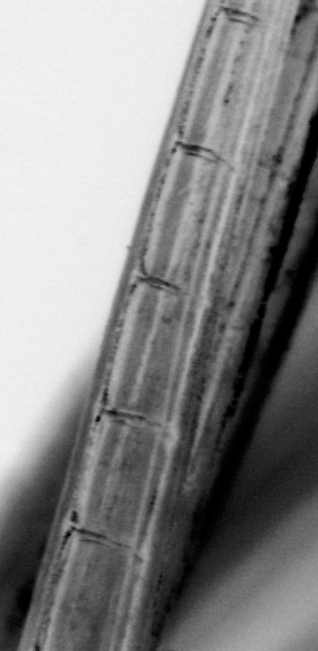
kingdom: Animalia
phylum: Chordata
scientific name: Chordata
